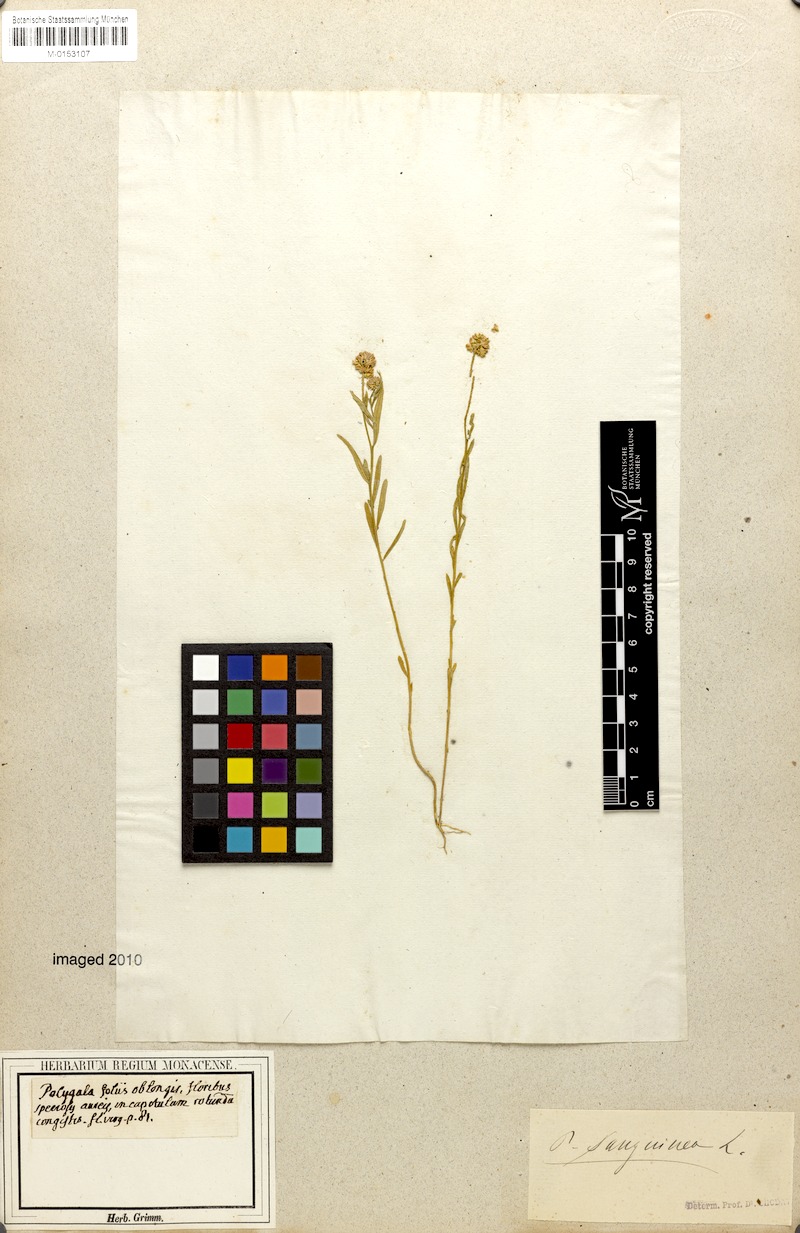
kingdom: Plantae
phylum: Tracheophyta
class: Magnoliopsida
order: Fabales
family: Polygalaceae
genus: Polygala
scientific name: Polygala sanguinea
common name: Blood milkwort
